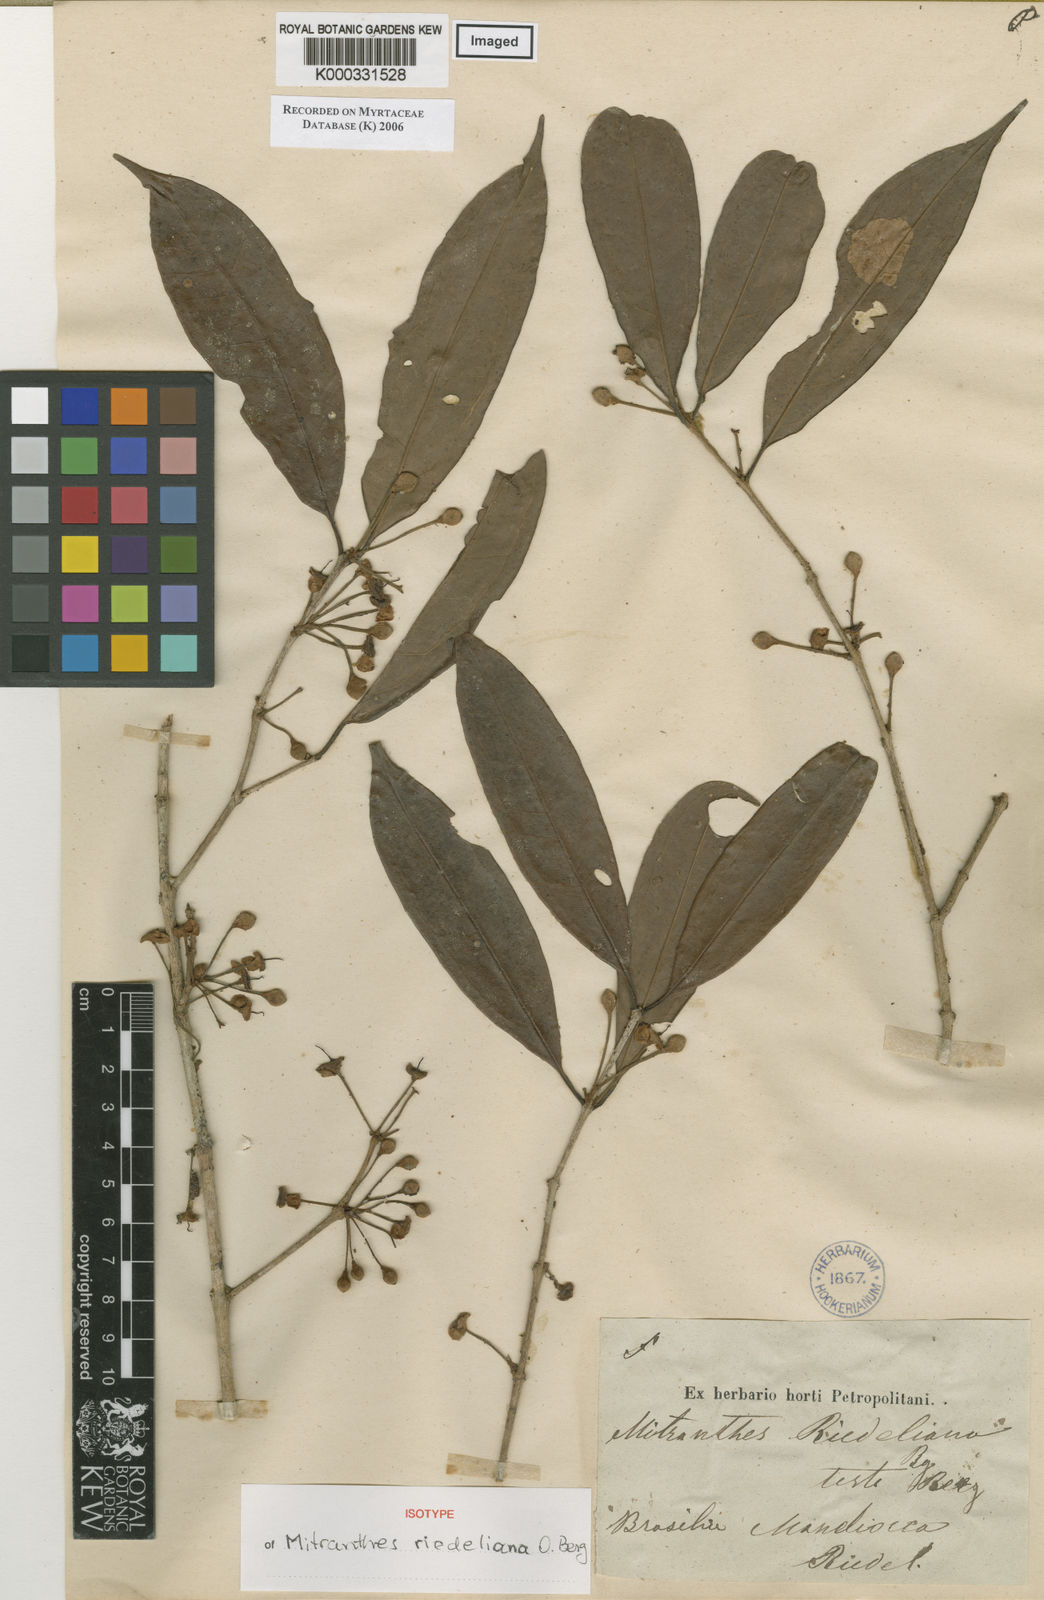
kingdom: Plantae
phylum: Tracheophyta
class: Magnoliopsida
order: Myrtales
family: Myrtaceae
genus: Eugenia
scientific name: Eugenia neoriedeliana
